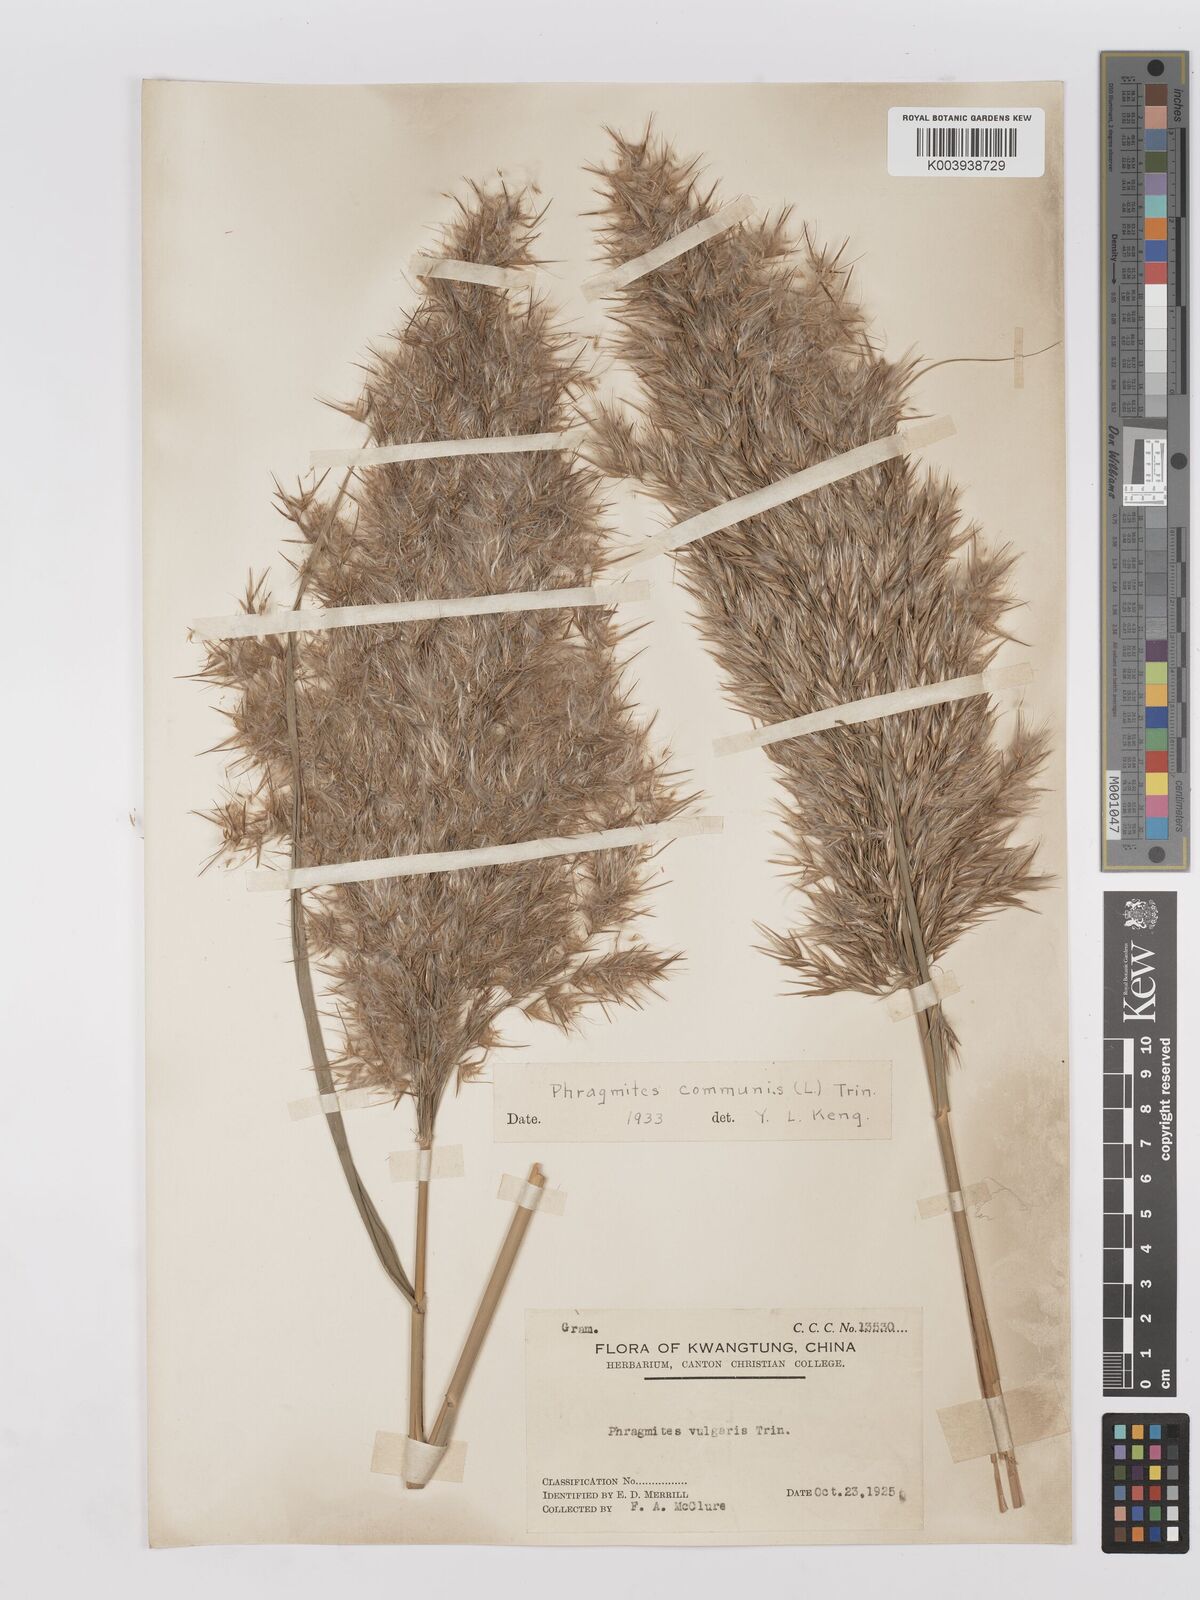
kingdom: Plantae
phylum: Tracheophyta
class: Liliopsida
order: Poales
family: Poaceae
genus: Phragmites
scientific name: Phragmites australis
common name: Common reed
